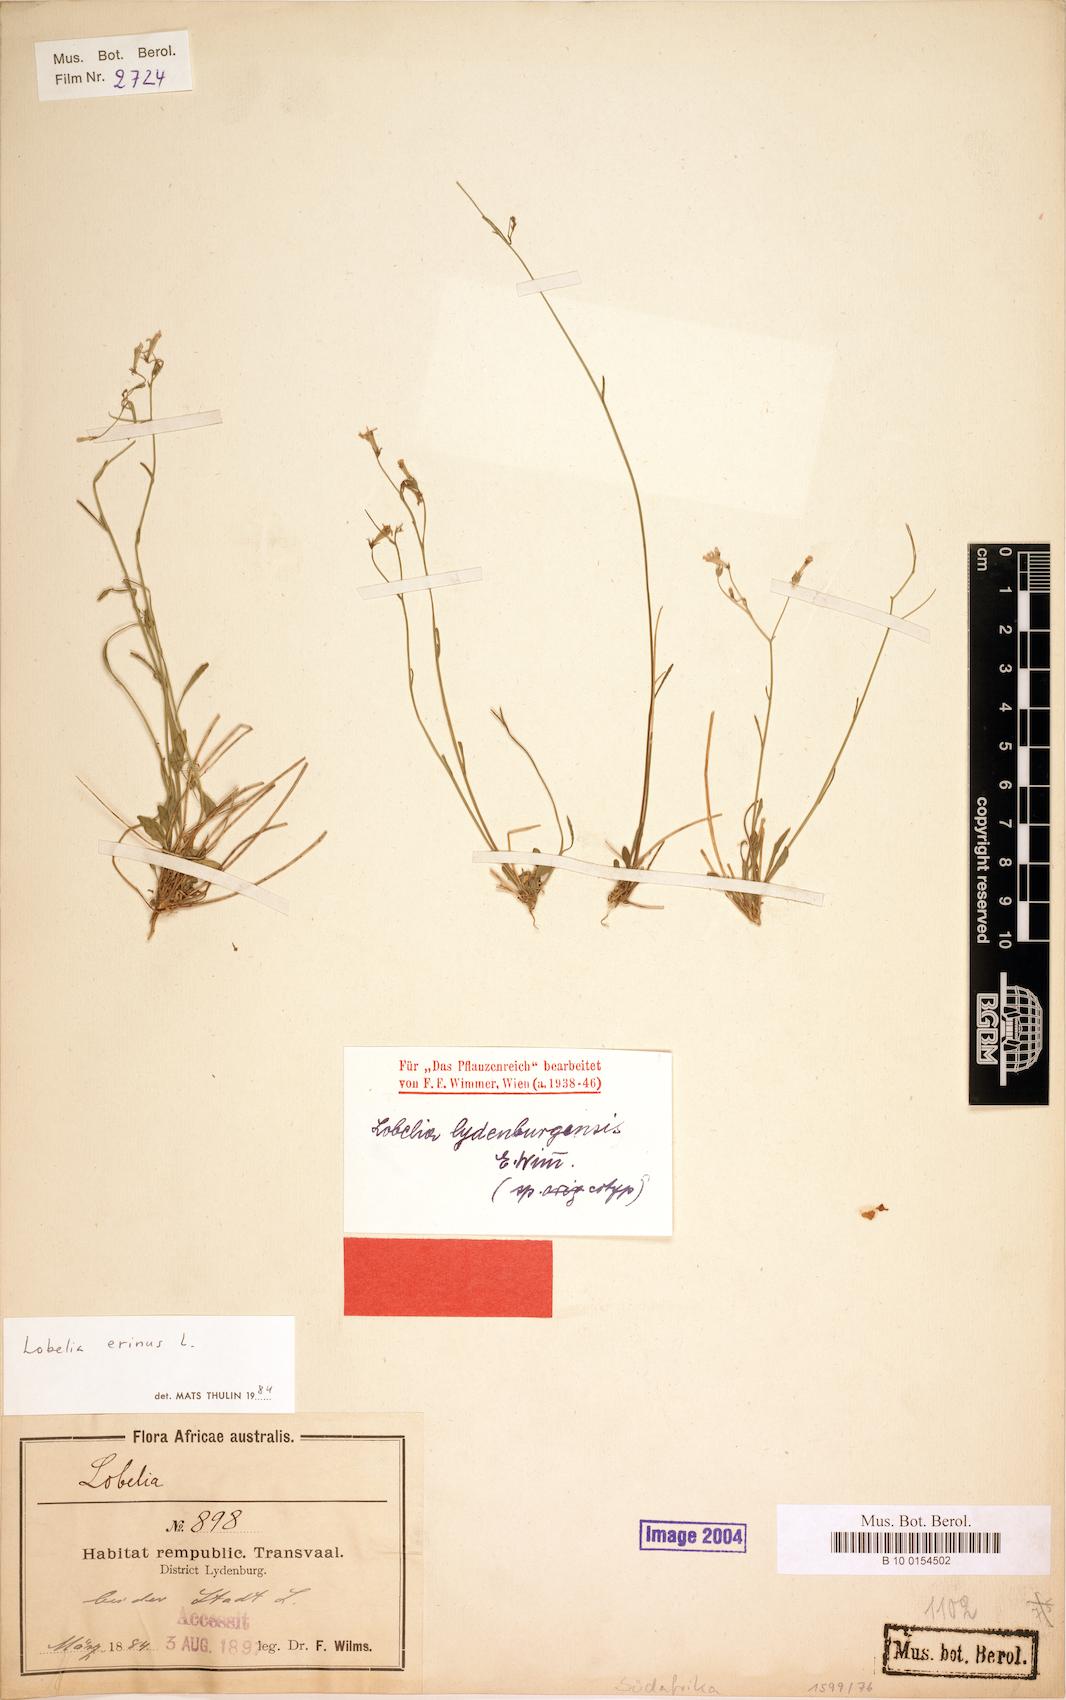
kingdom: Plantae
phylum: Tracheophyta
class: Magnoliopsida
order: Asterales
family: Campanulaceae
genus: Lobelia
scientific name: Lobelia erinus
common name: Edging lobelia
